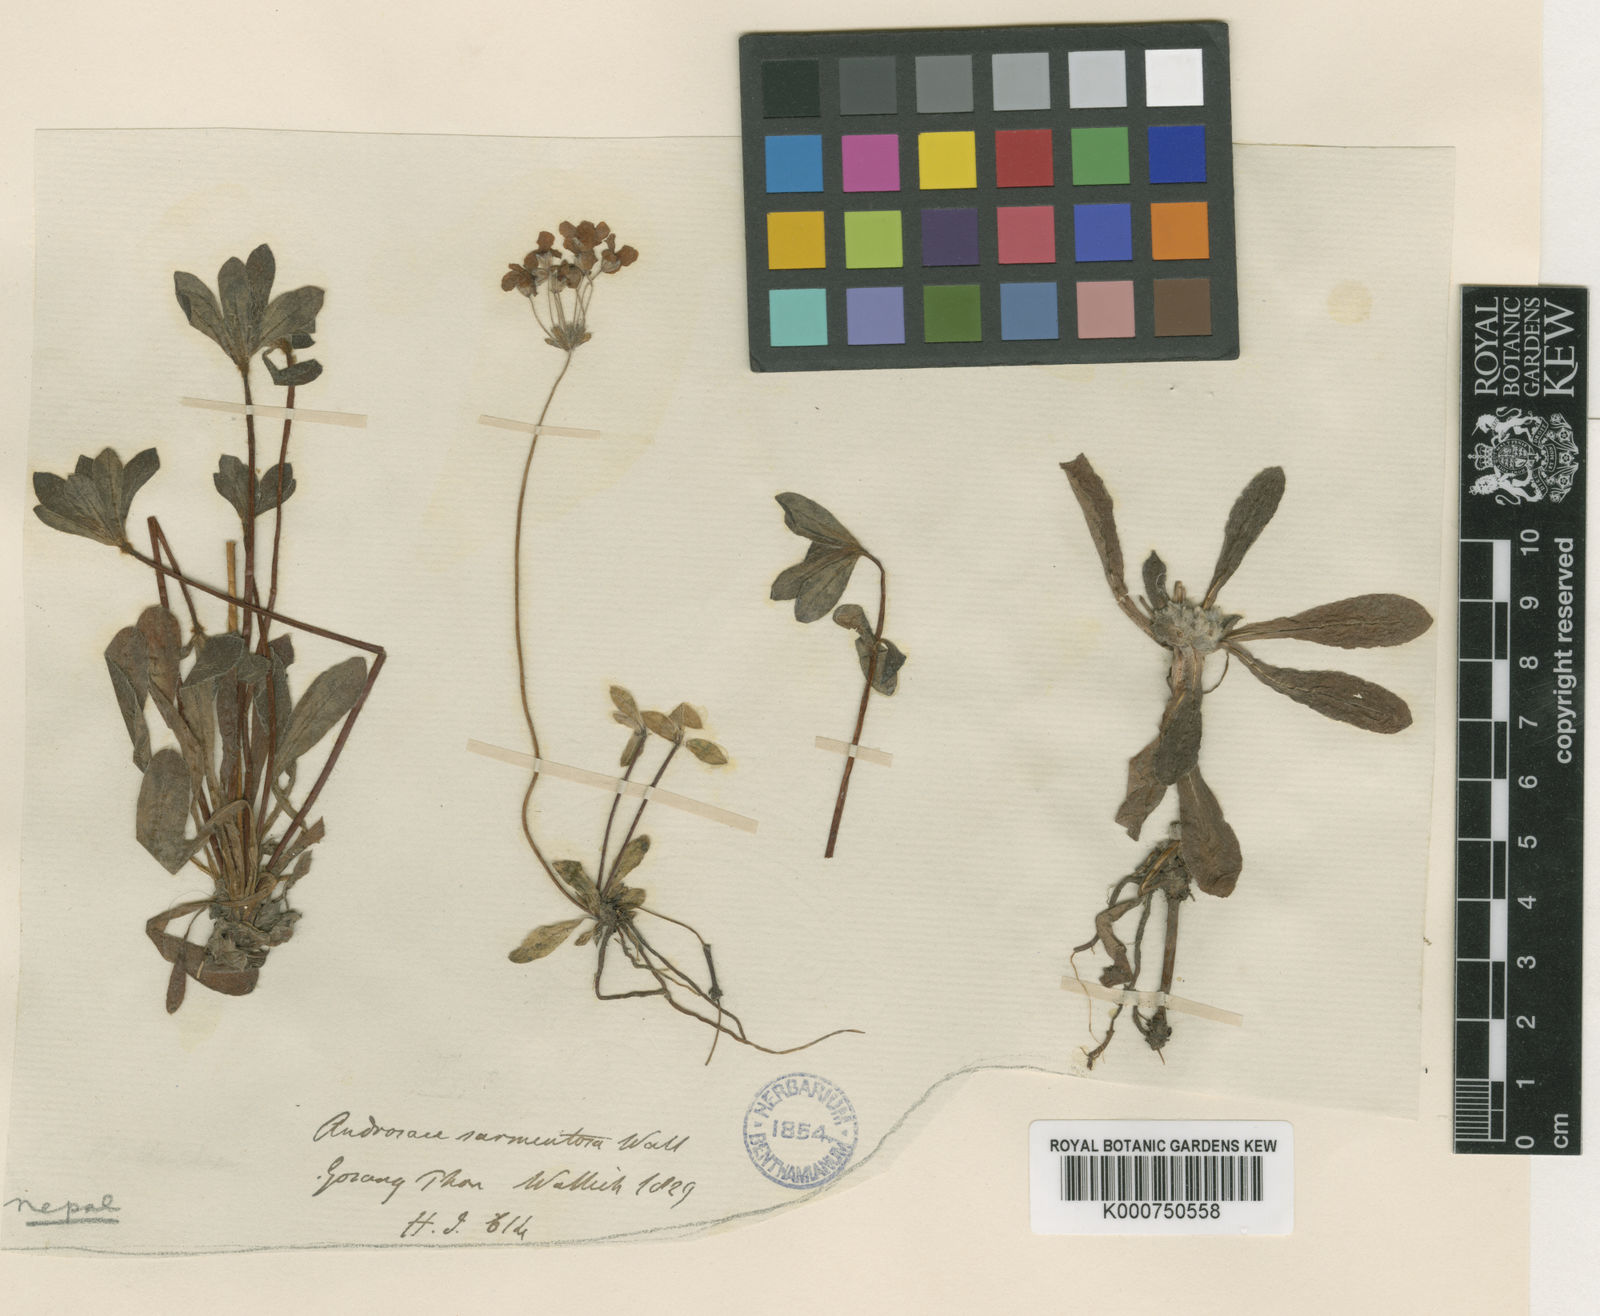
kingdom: Plantae
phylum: Tracheophyta
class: Magnoliopsida
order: Ericales
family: Primulaceae
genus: Androsace
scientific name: Androsace sarmentosa
